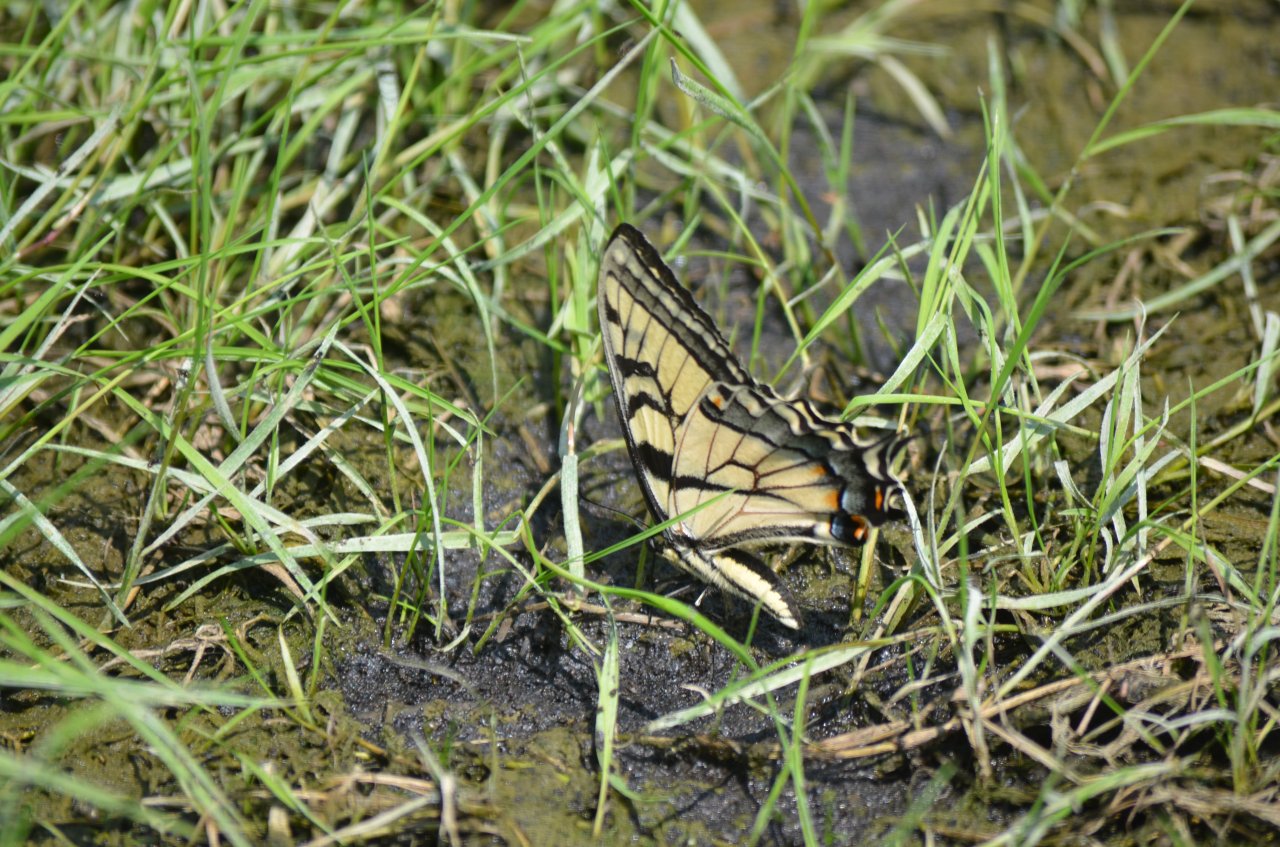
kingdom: Animalia
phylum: Arthropoda
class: Insecta
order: Lepidoptera
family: Papilionidae
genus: Pterourus
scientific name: Pterourus glaucus
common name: Eastern Tiger Swallowtail
